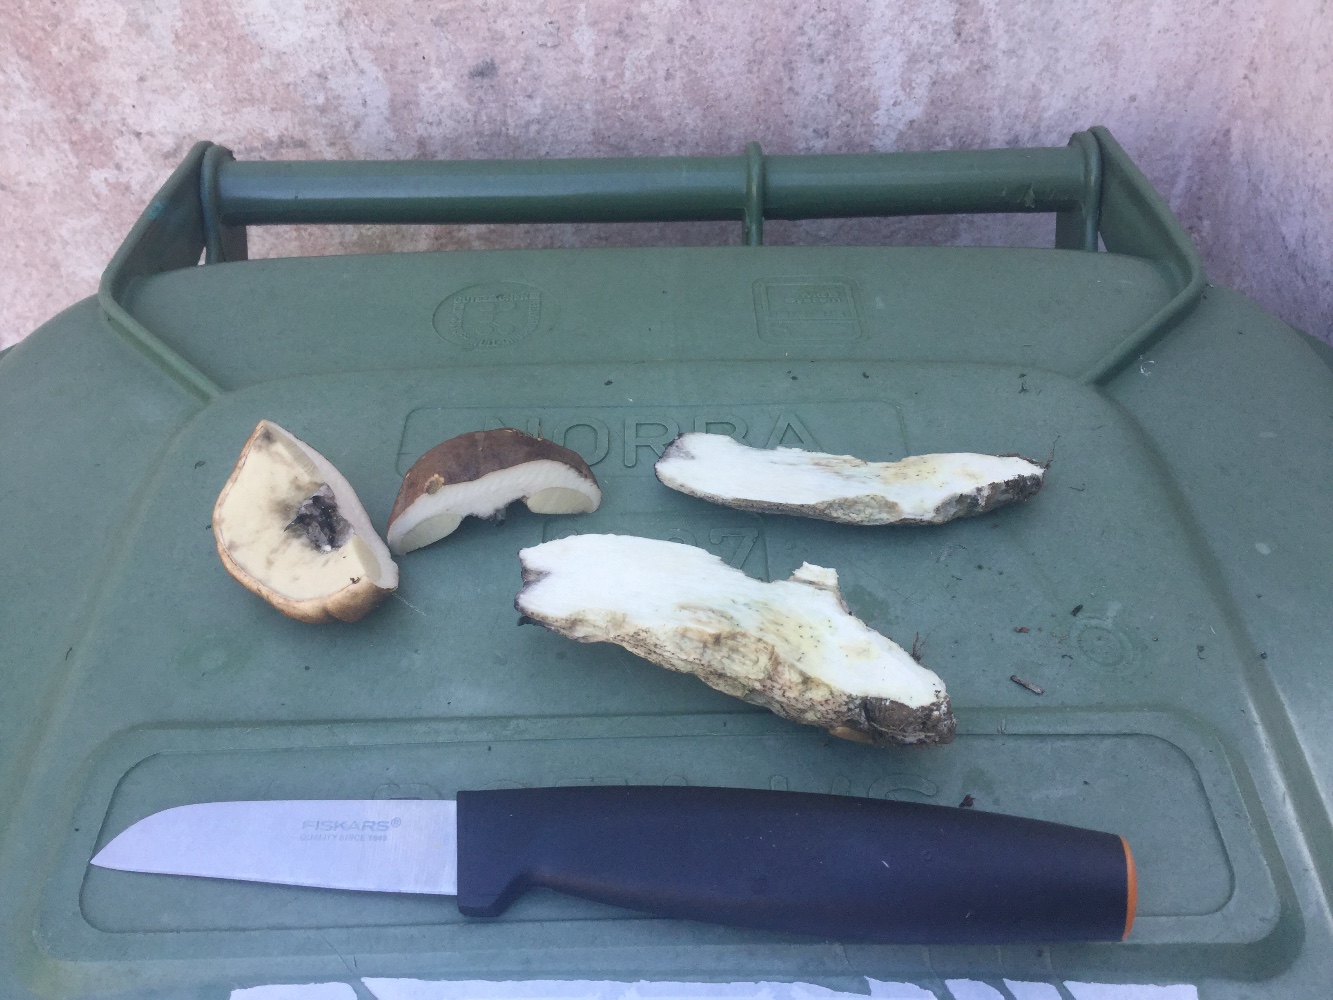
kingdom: Fungi
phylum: Basidiomycota
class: Agaricomycetes
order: Boletales
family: Boletaceae
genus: Leccinum
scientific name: Leccinum duriusculum
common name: poppel-skælrørhat
